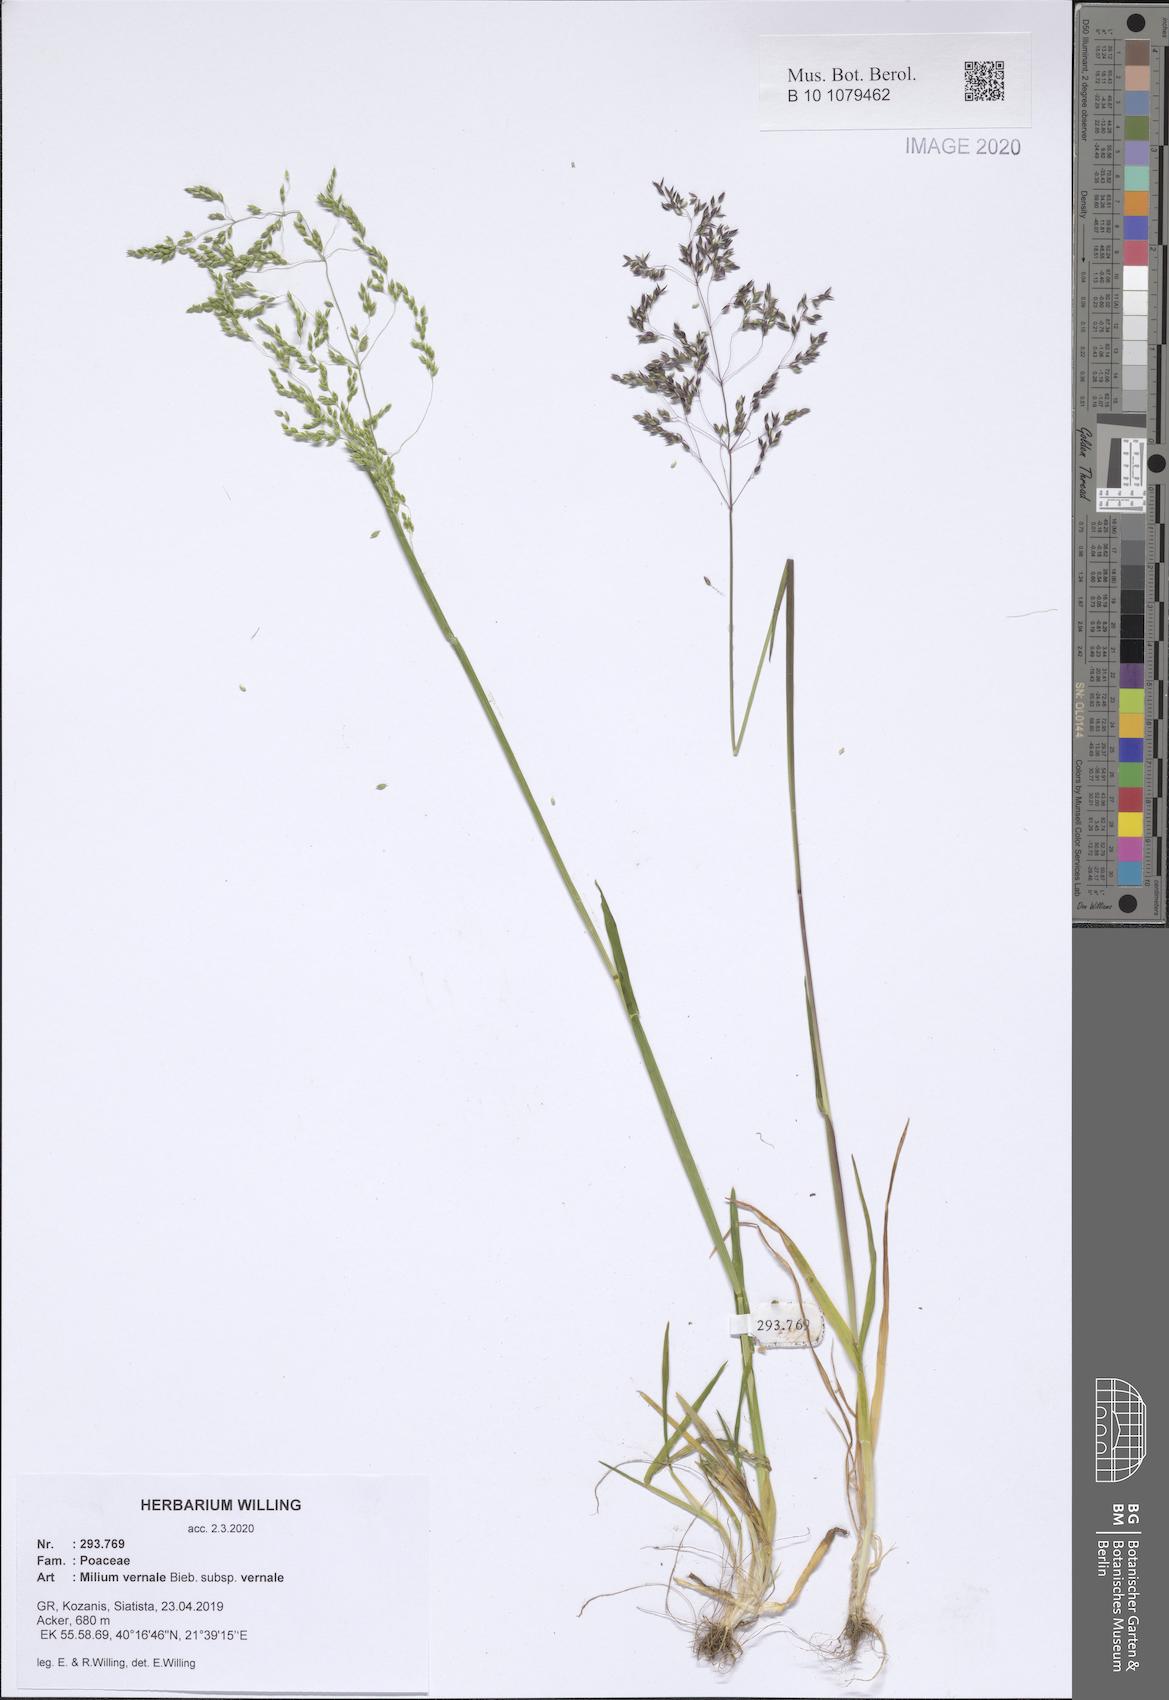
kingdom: Plantae
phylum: Tracheophyta
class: Liliopsida
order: Poales
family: Poaceae
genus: Milium
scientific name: Milium vernale
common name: Early millet
